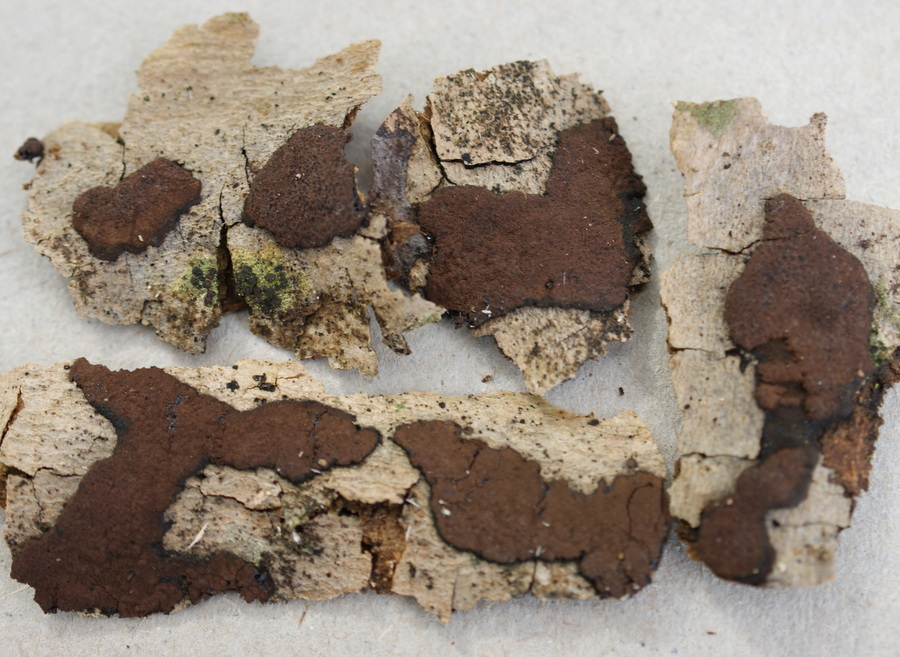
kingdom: Fungi
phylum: Ascomycota
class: Sordariomycetes
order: Xylariales
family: Hypoxylaceae
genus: Hypoxylon
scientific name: Hypoxylon petriniae
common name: nedsænket kulbær
